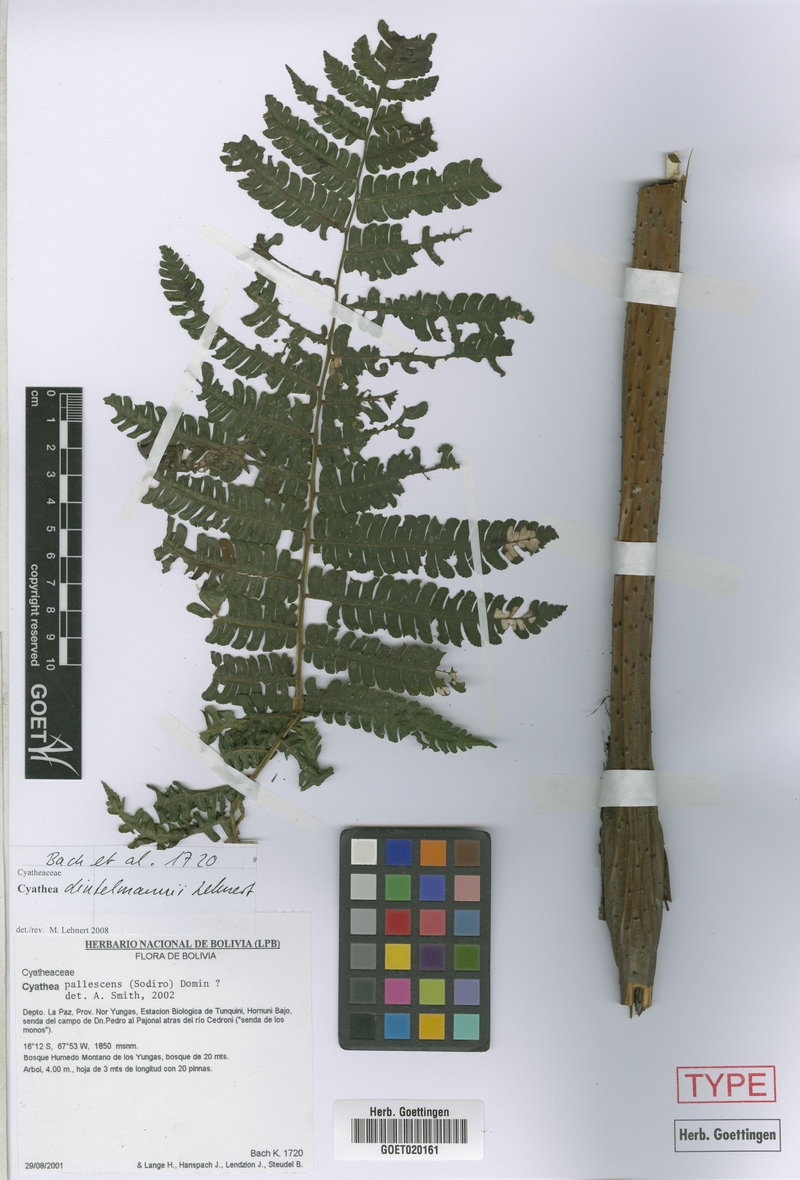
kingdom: Plantae
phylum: Tracheophyta
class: Polypodiopsida
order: Cyatheales
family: Cyatheaceae
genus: Cyathea
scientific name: Cyathea dintelmannii
